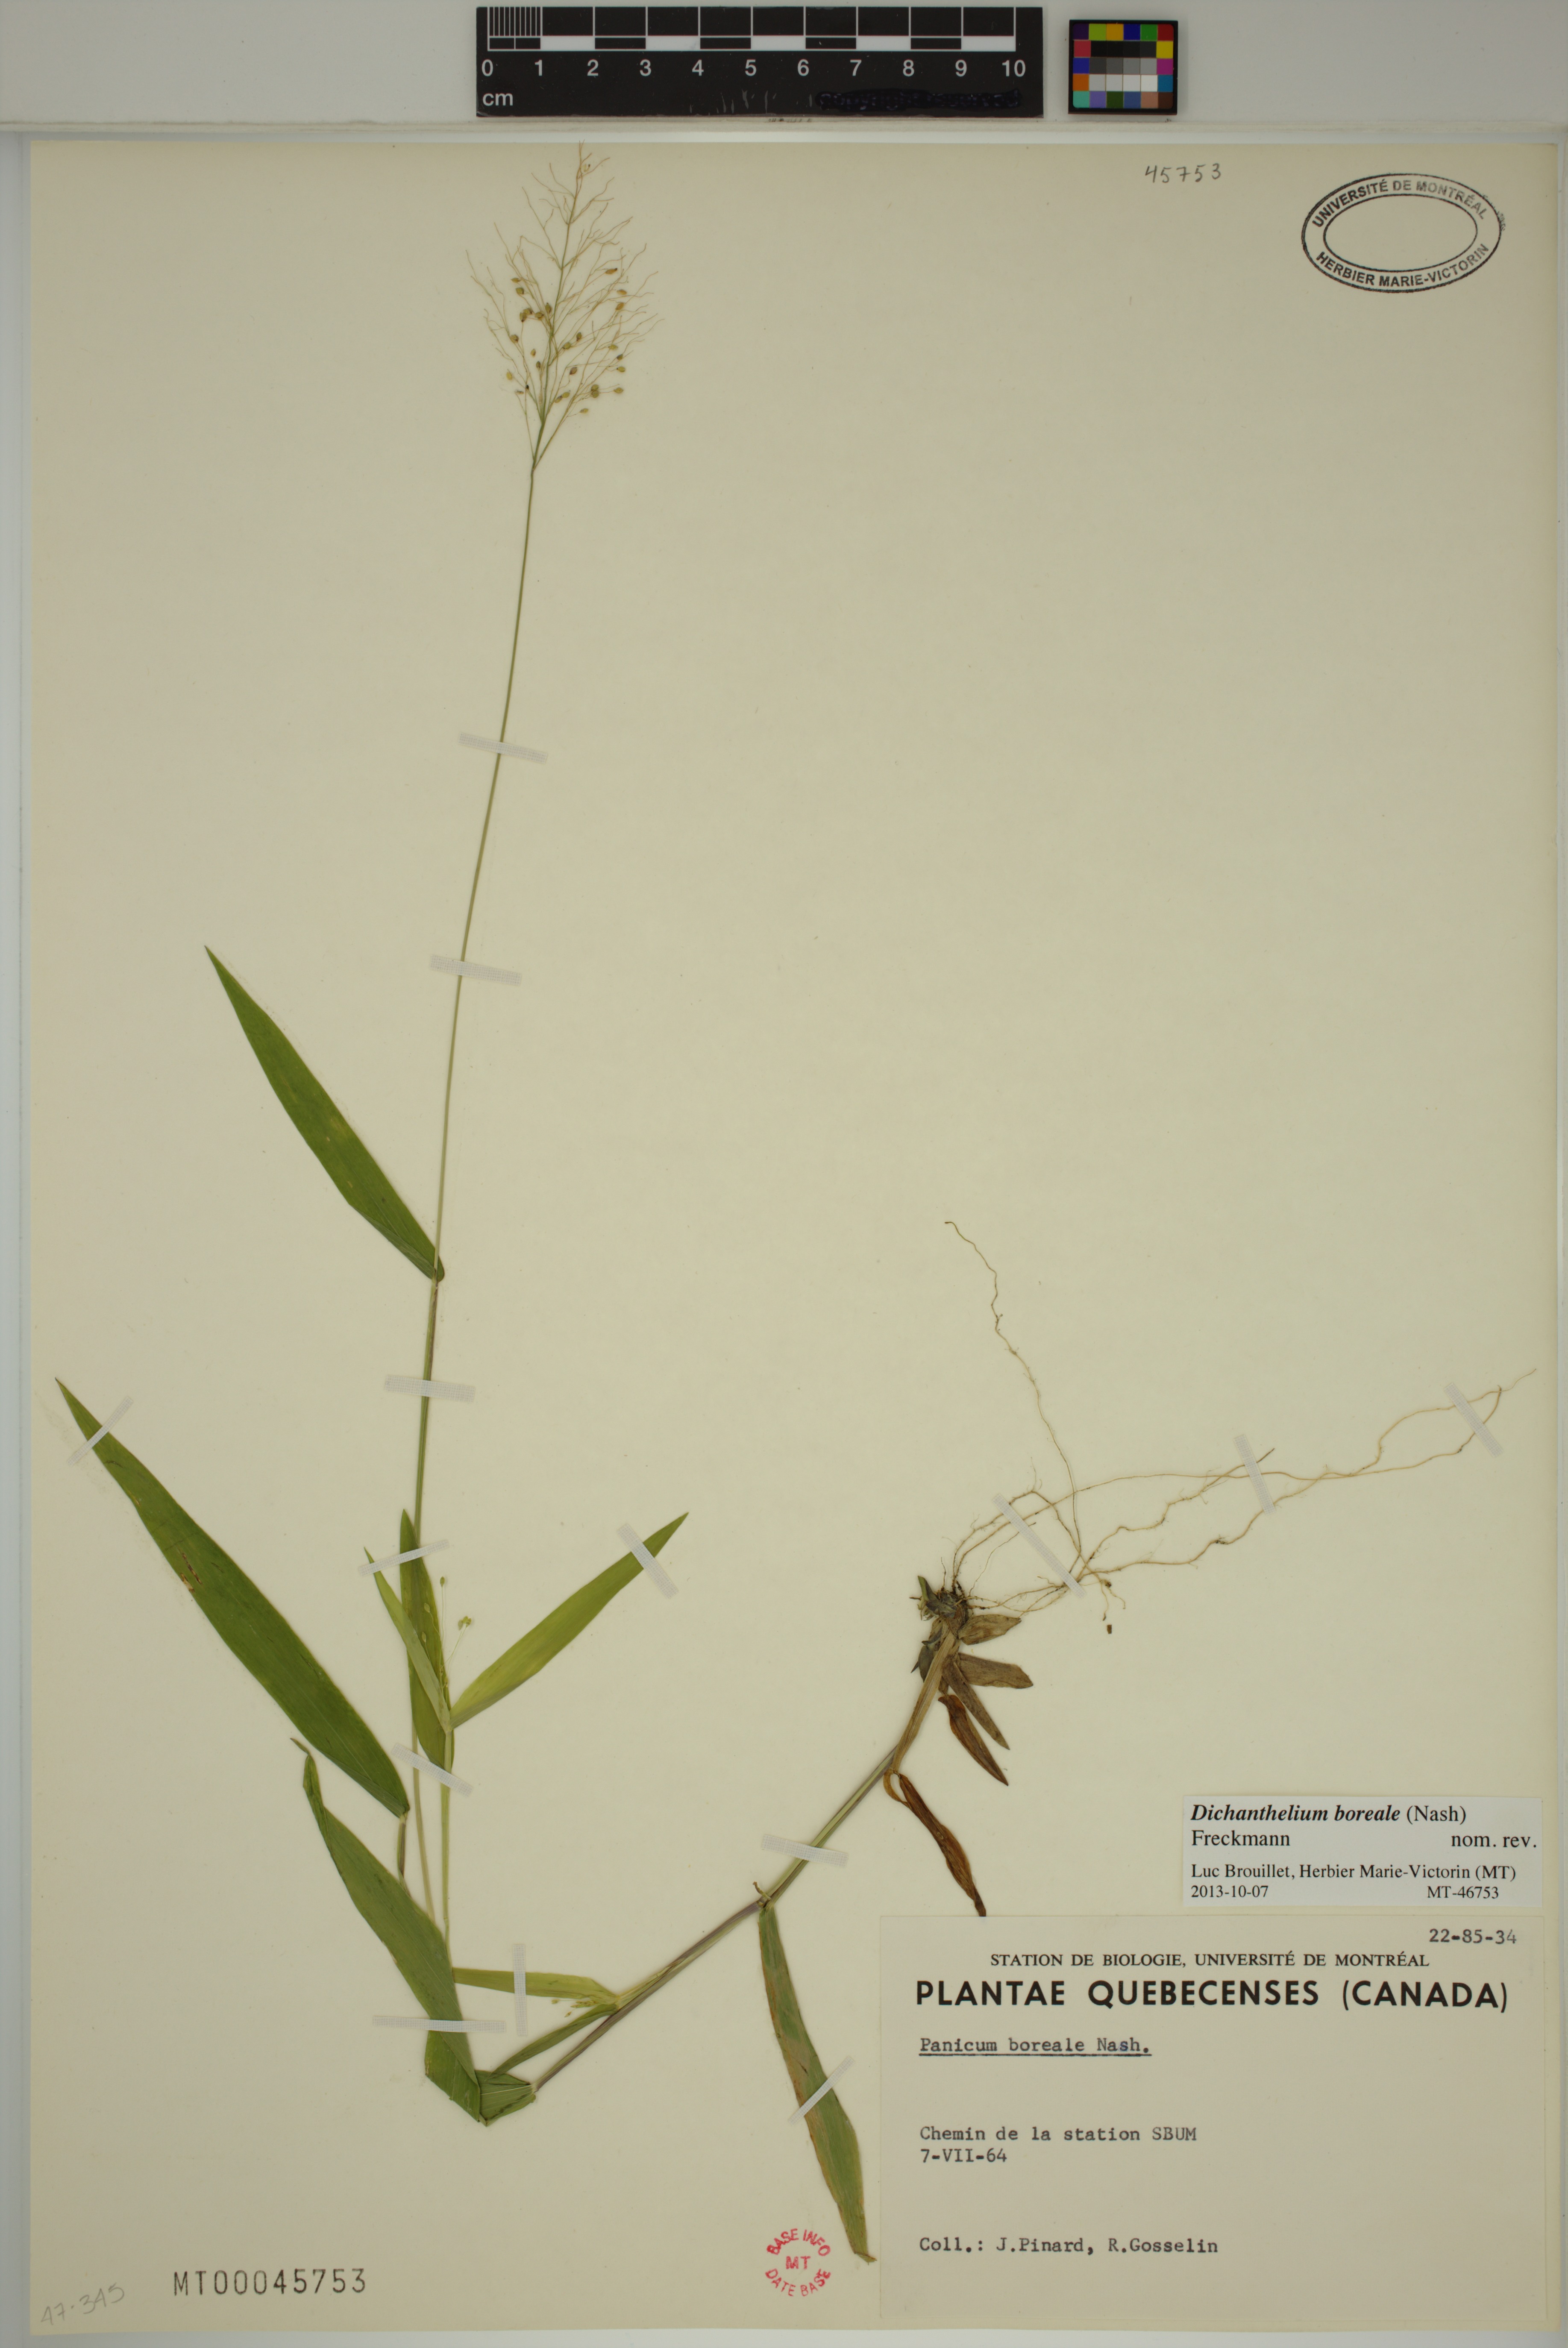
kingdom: Plantae
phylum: Tracheophyta
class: Liliopsida
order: Poales
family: Poaceae
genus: Dichanthelium
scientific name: Dichanthelium boreale
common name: Northern panicgrass
